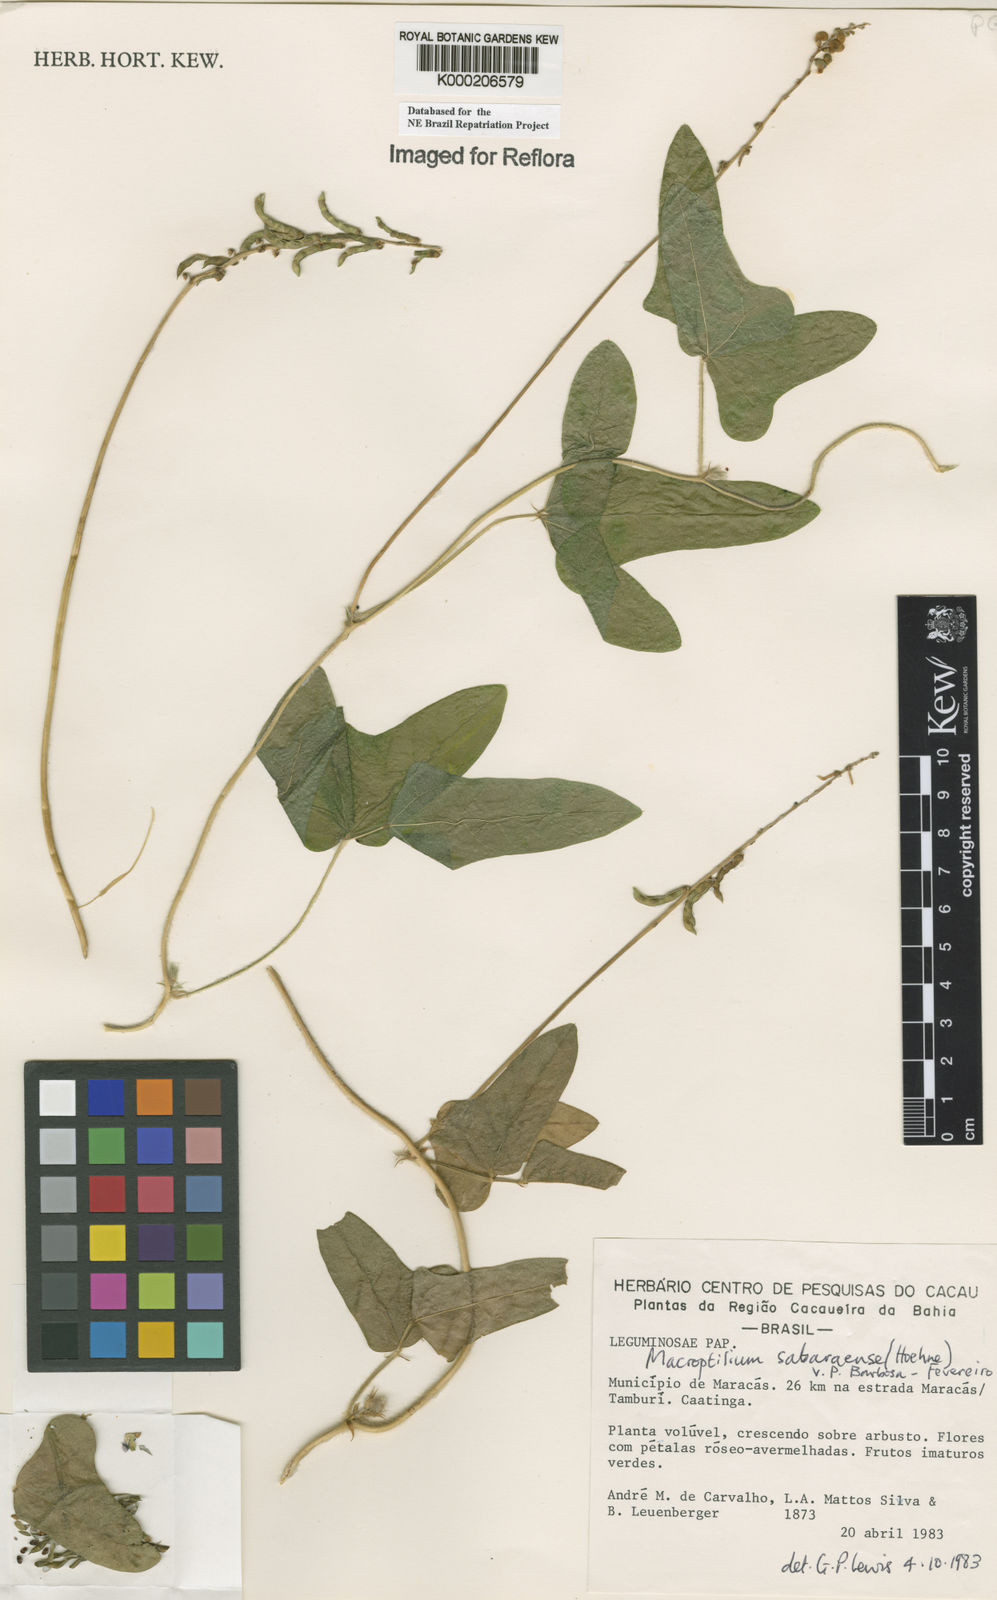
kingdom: Plantae
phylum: Tracheophyta
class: Magnoliopsida
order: Fabales
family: Fabaceae
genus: Macroptilium
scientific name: Macroptilium sabaraense
